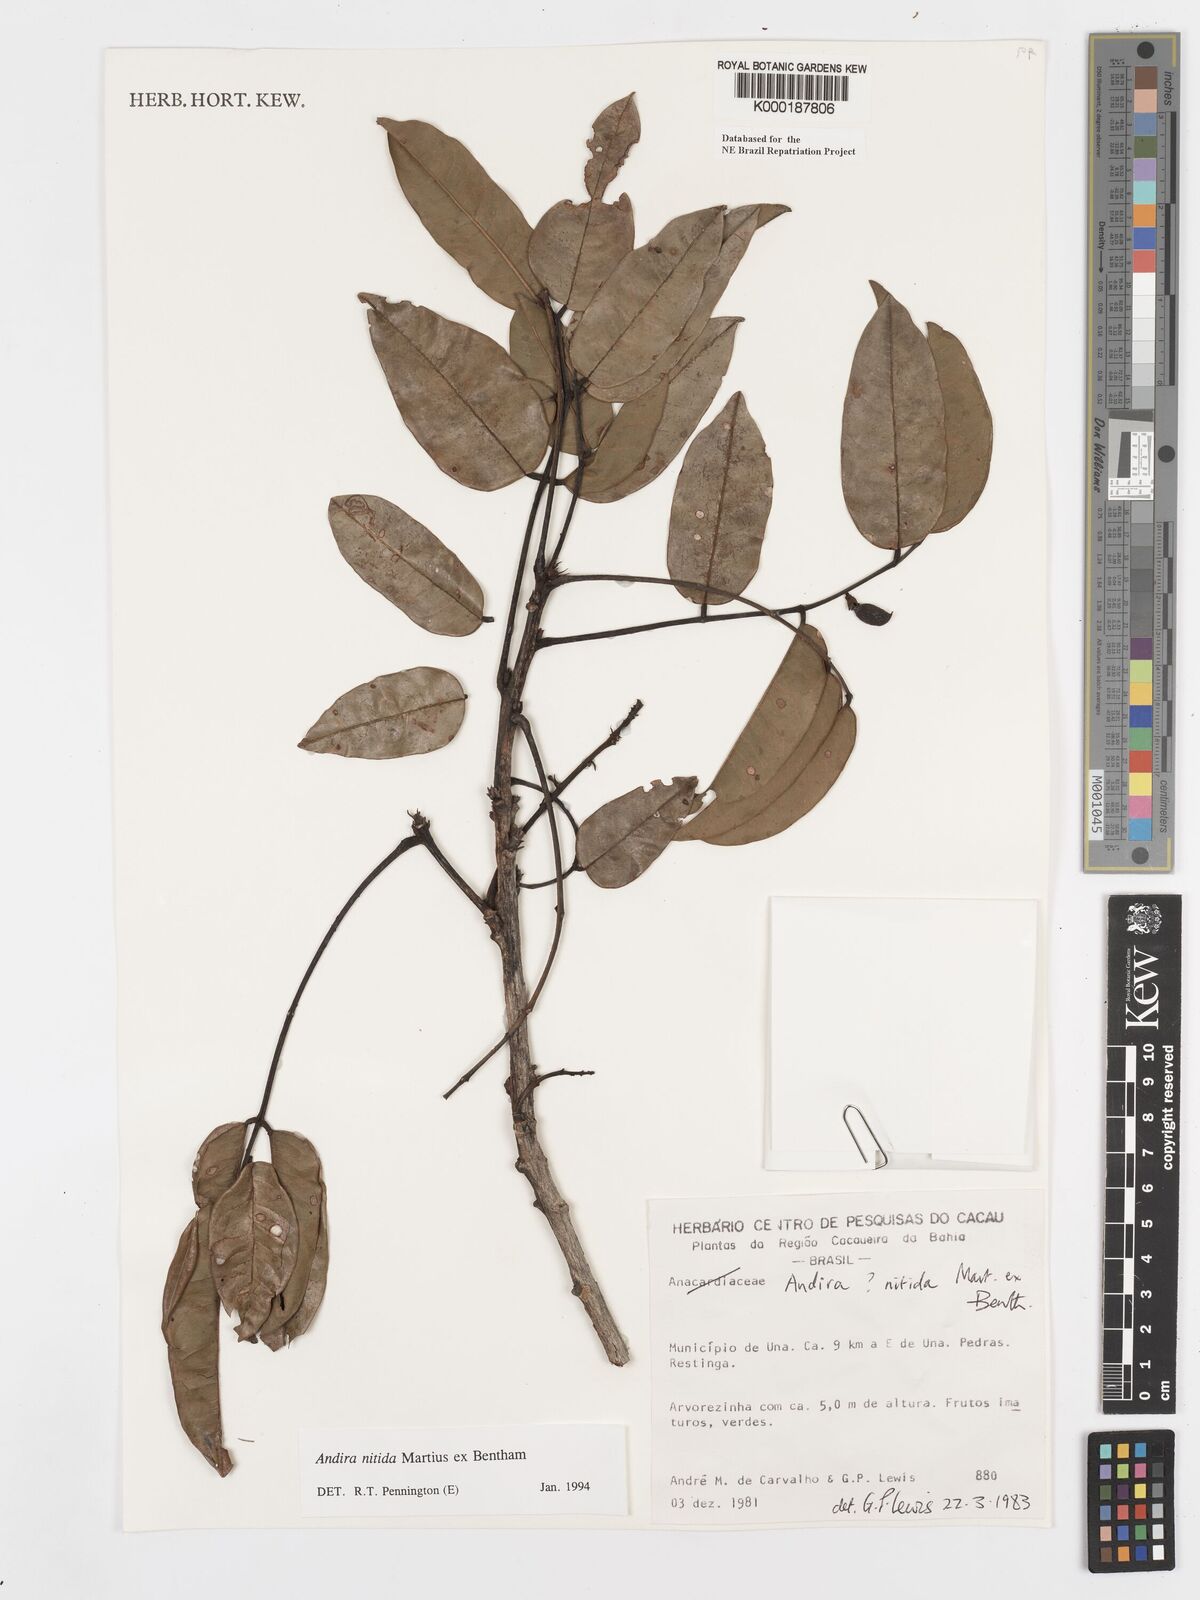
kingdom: Plantae
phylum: Tracheophyta
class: Magnoliopsida
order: Fabales
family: Fabaceae
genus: Andira
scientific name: Andira nitida
